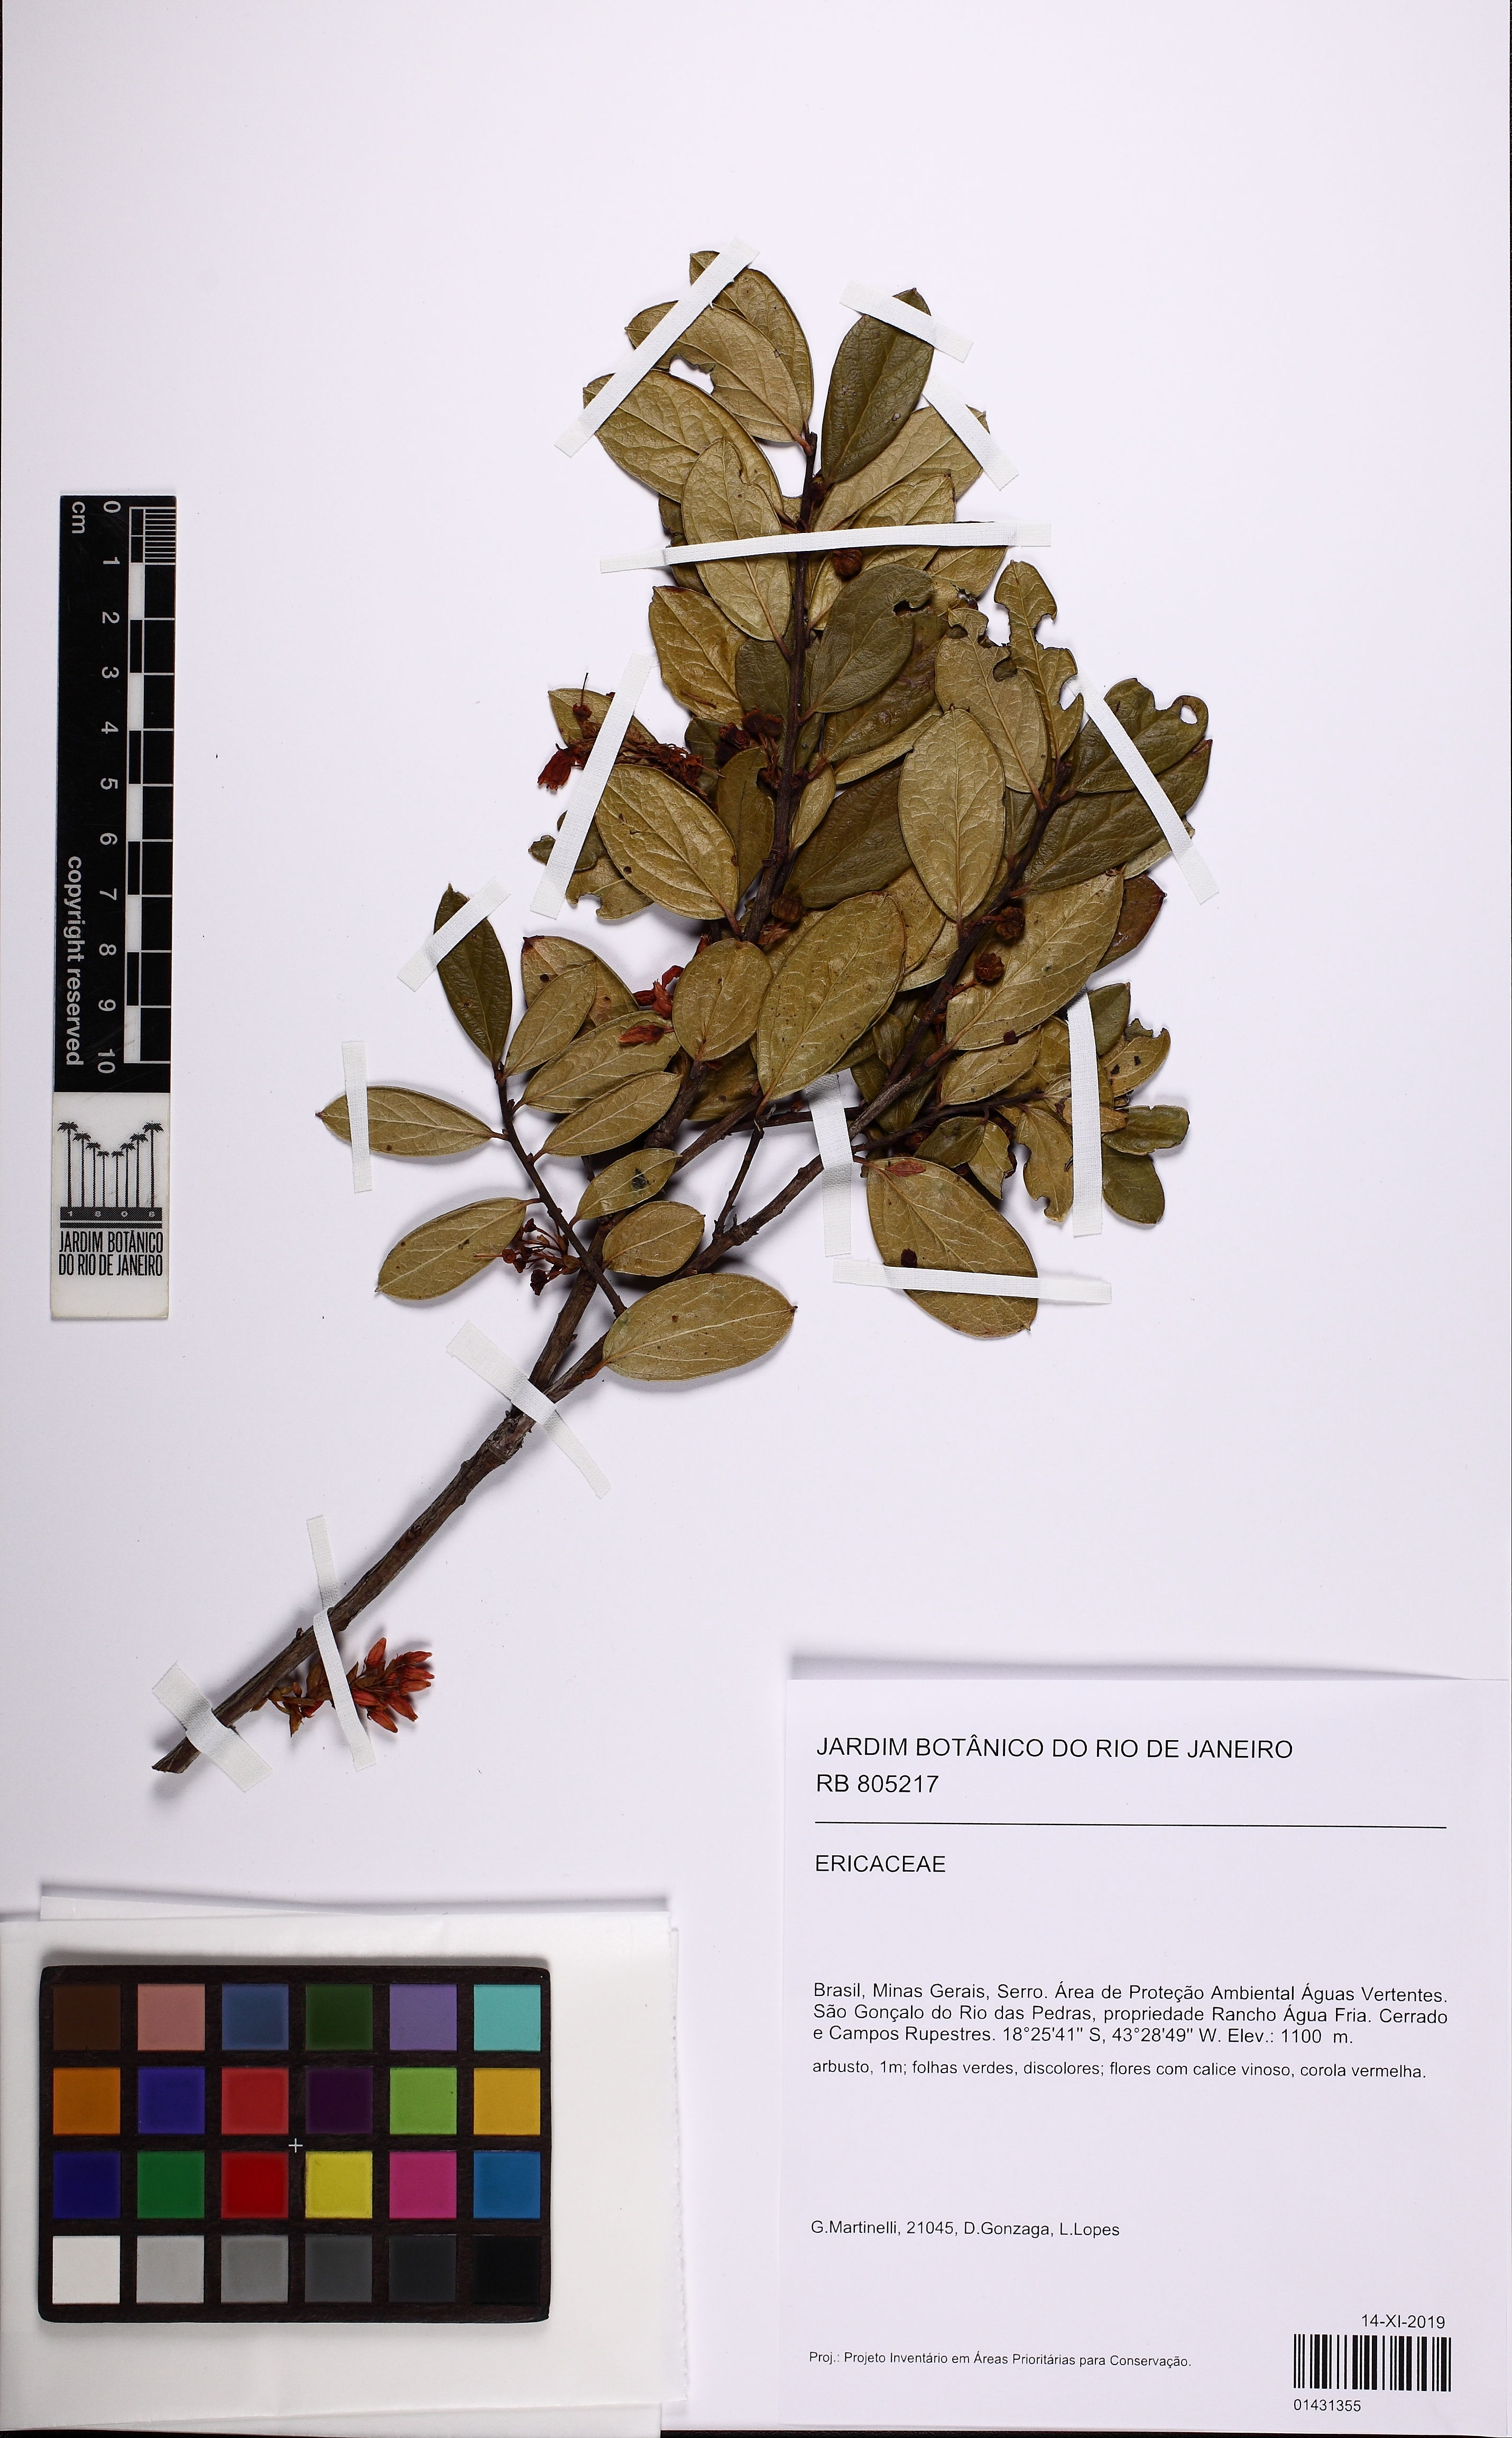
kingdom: Plantae
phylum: Tracheophyta
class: Magnoliopsida
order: Ericales
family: Ericaceae
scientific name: Ericaceae
